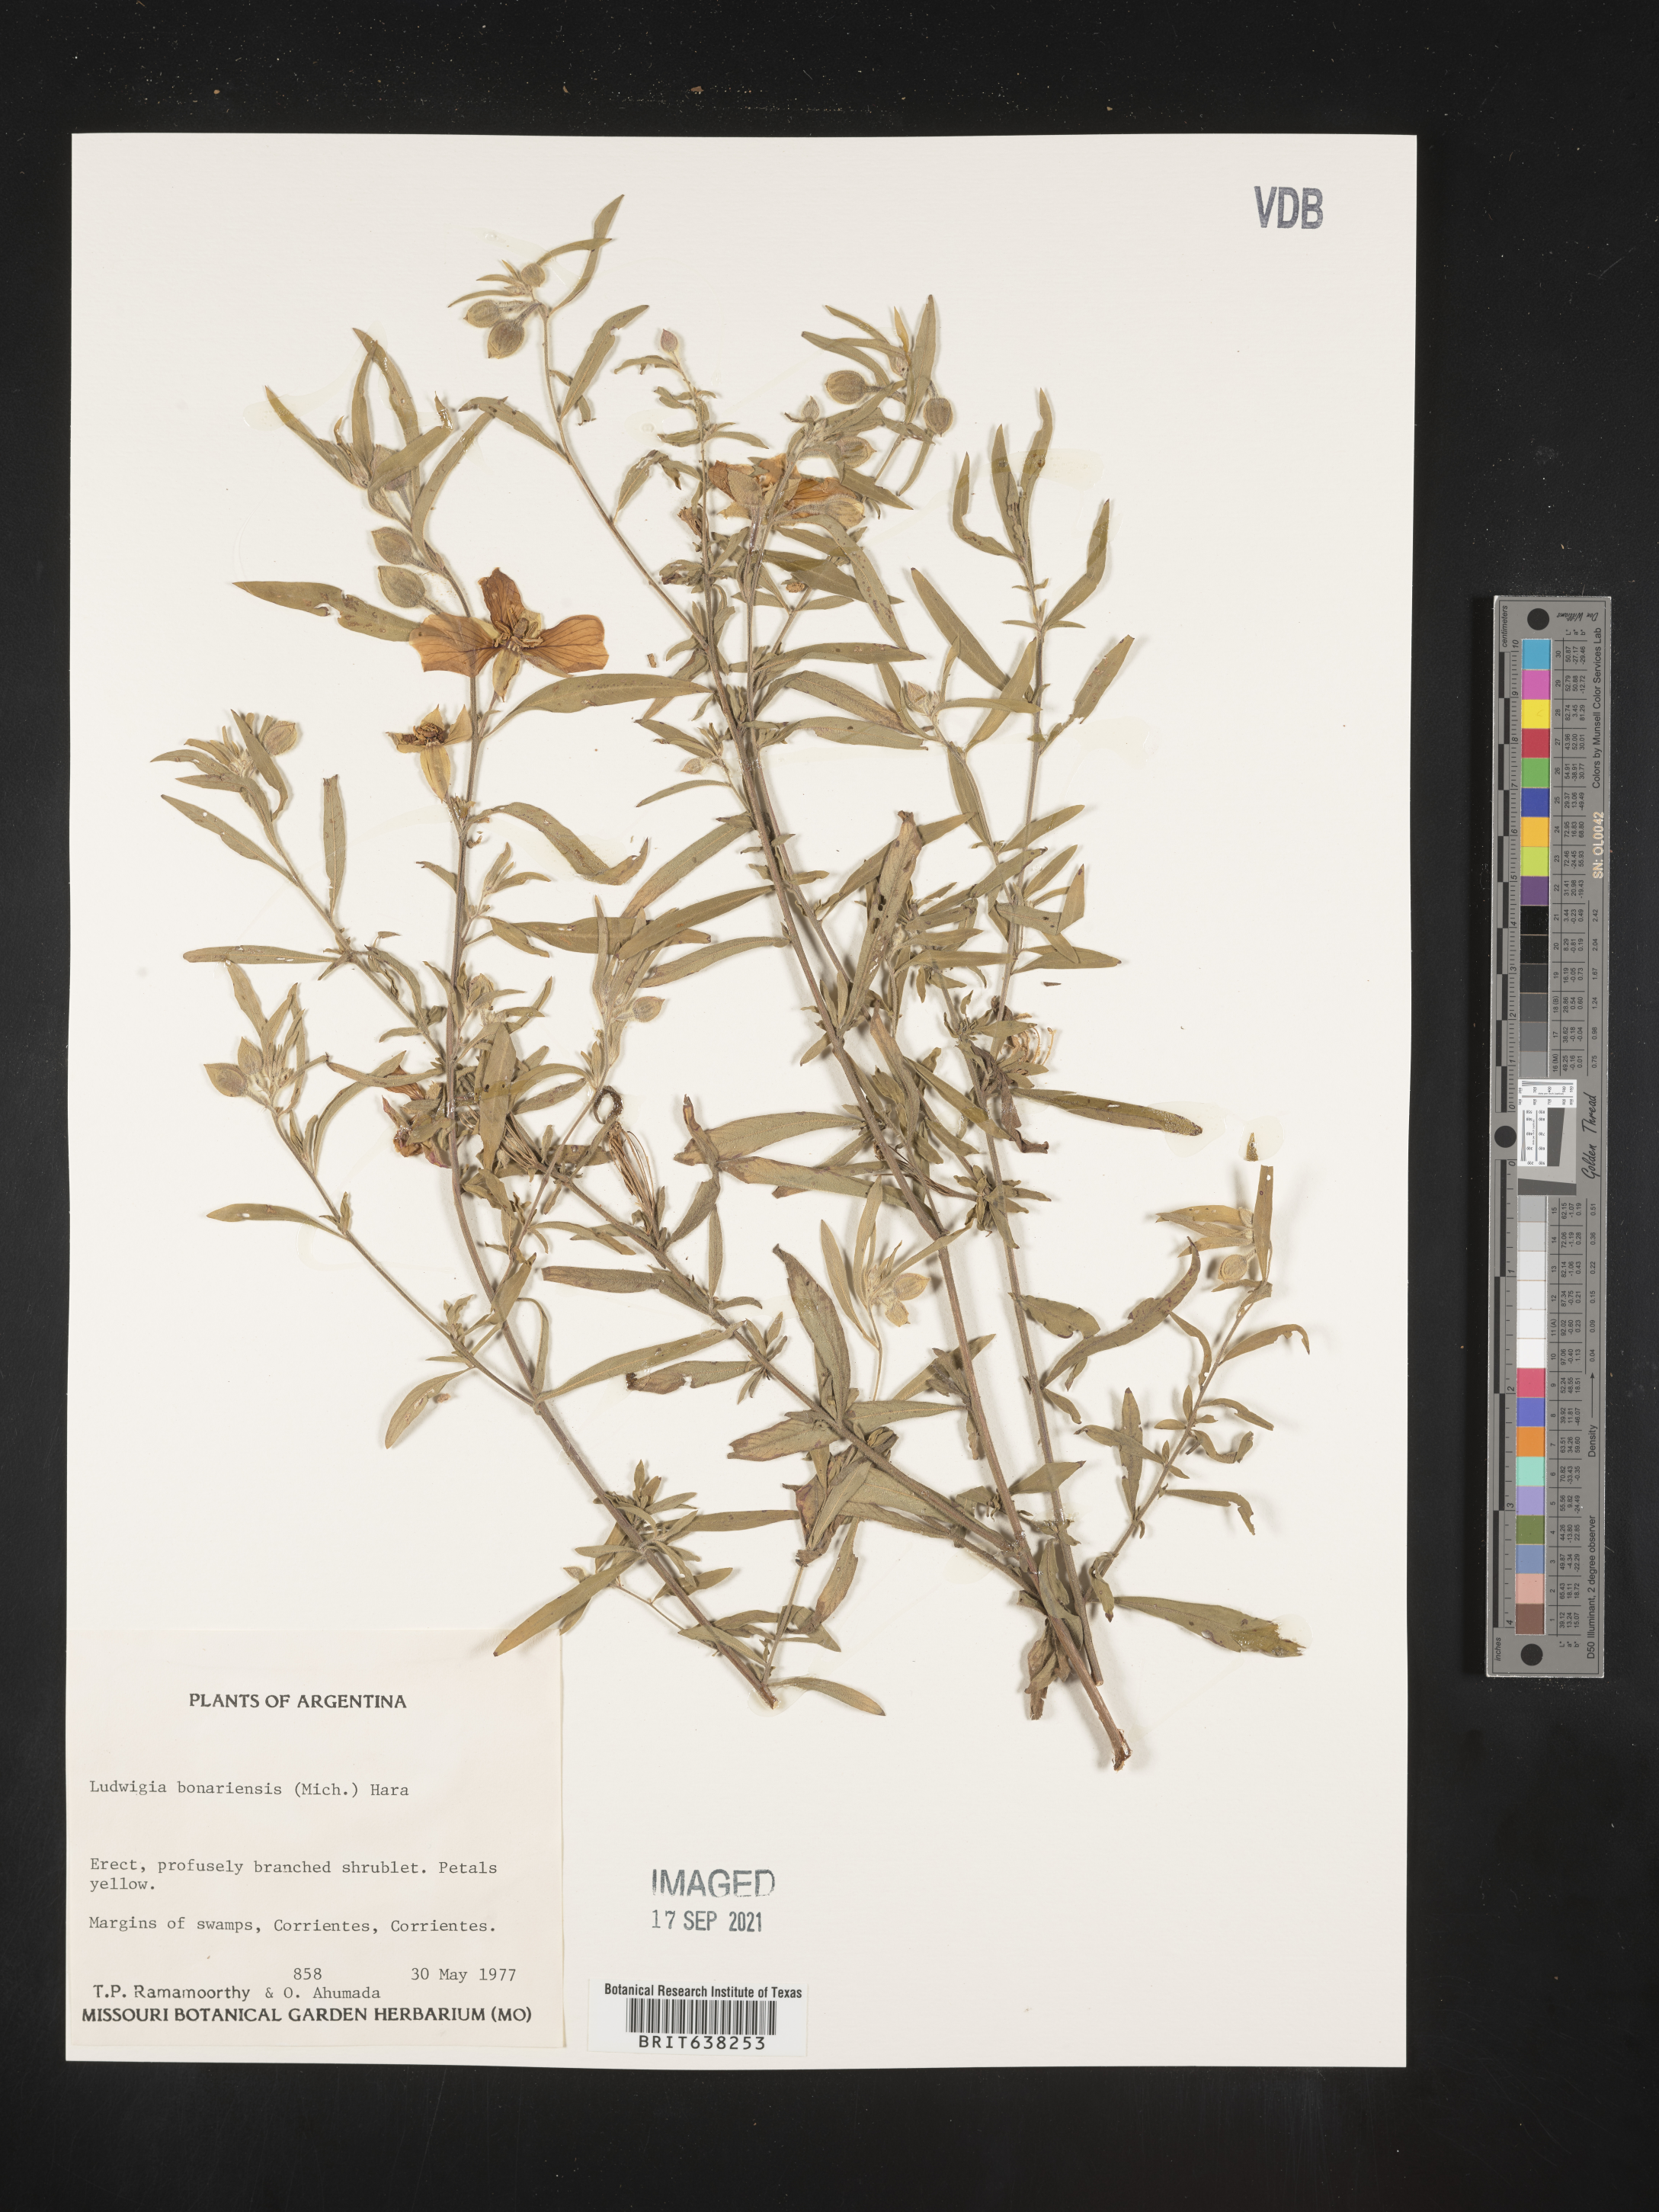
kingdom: Plantae
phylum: Tracheophyta
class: Magnoliopsida
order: Myrtales
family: Onagraceae
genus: Ludwigia
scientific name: Ludwigia
